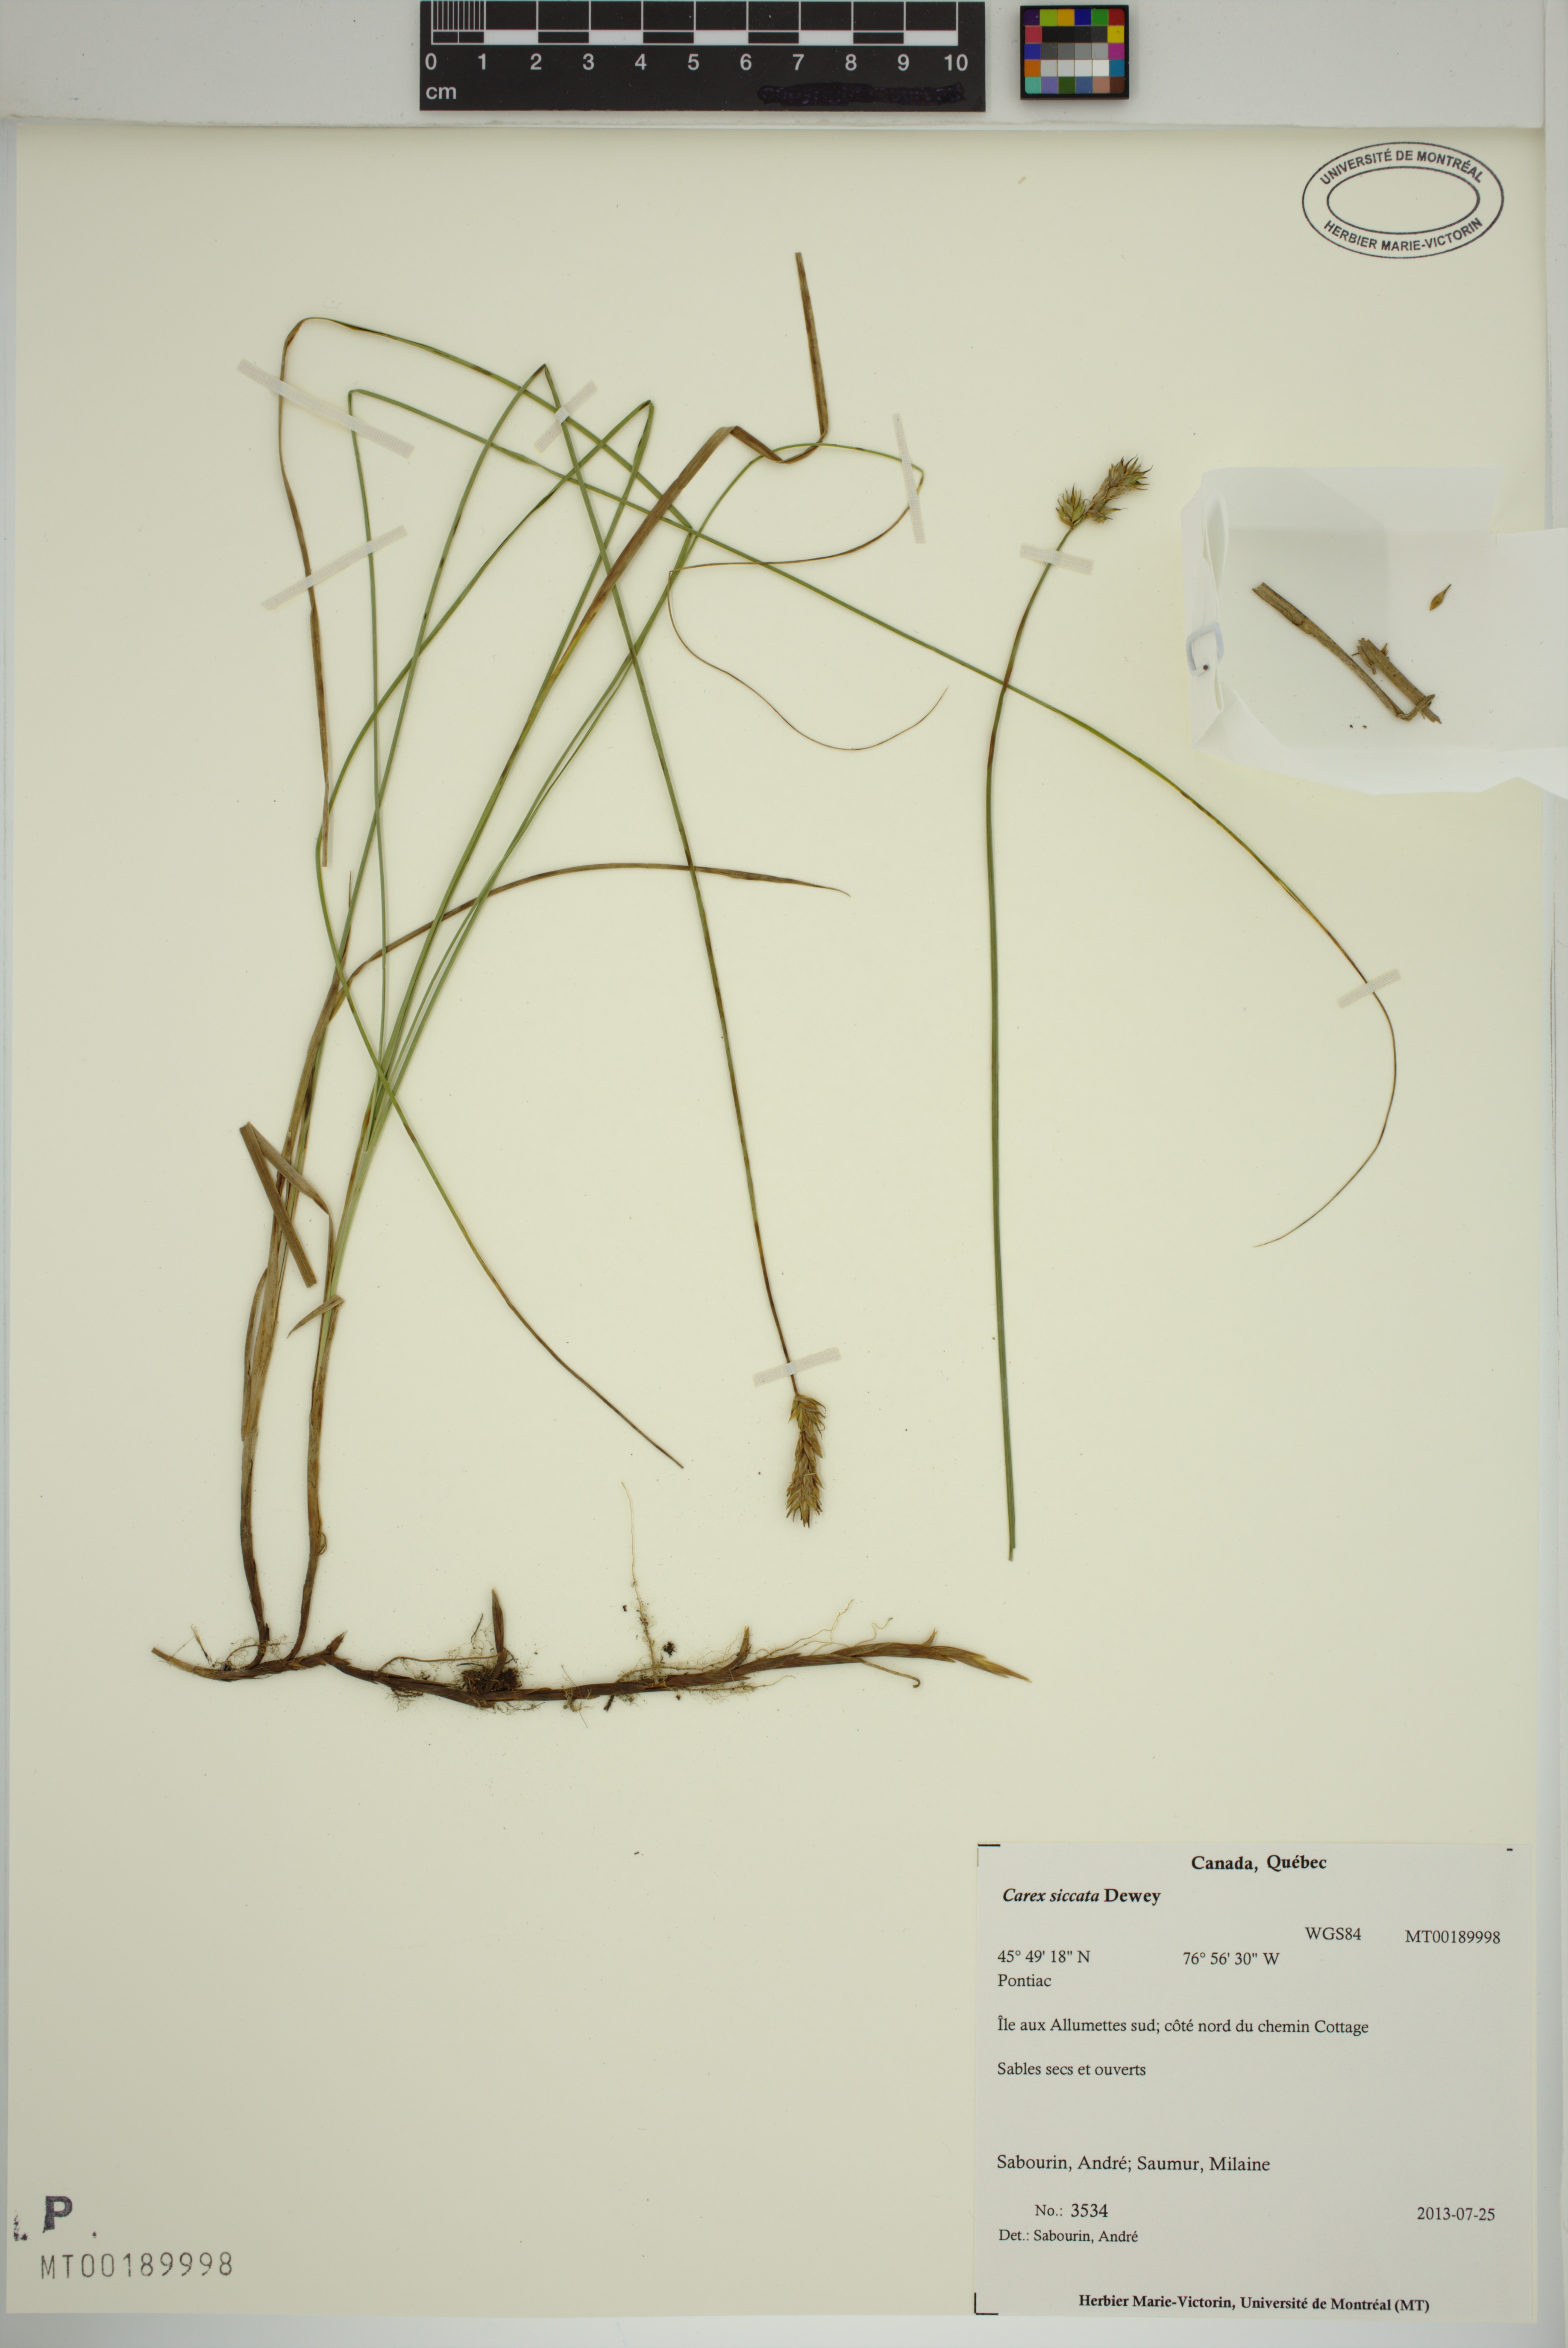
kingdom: Plantae
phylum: Tracheophyta
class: Liliopsida
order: Poales
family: Cyperaceae
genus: Carex
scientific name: Carex siccata
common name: Dry sedge
